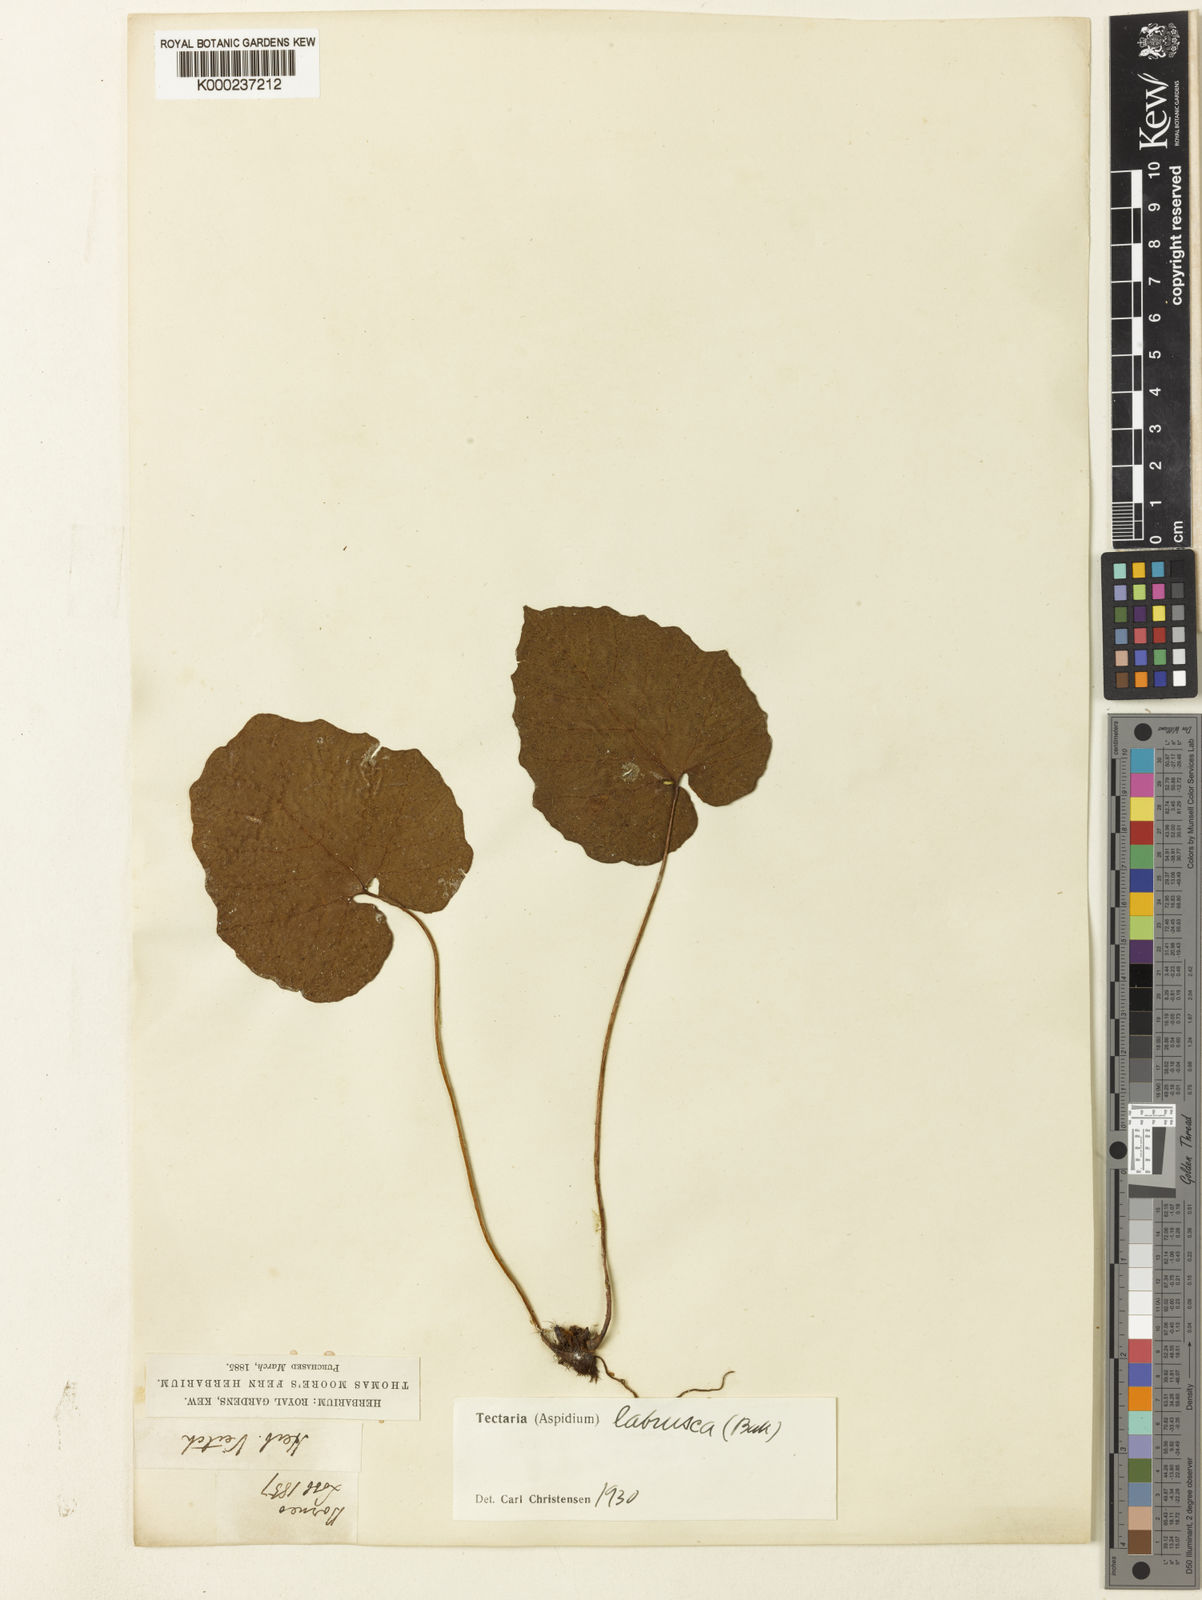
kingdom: Plantae
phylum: Tracheophyta
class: Polypodiopsida
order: Polypodiales
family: Tectariaceae
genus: Tectaria
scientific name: Tectaria labrusca
